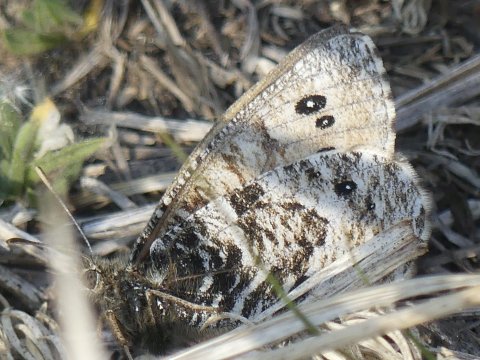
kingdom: Animalia
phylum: Arthropoda
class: Insecta
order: Lepidoptera
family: Nymphalidae
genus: Oeneis
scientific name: Oeneis uhleri
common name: Uhler's Arctic
